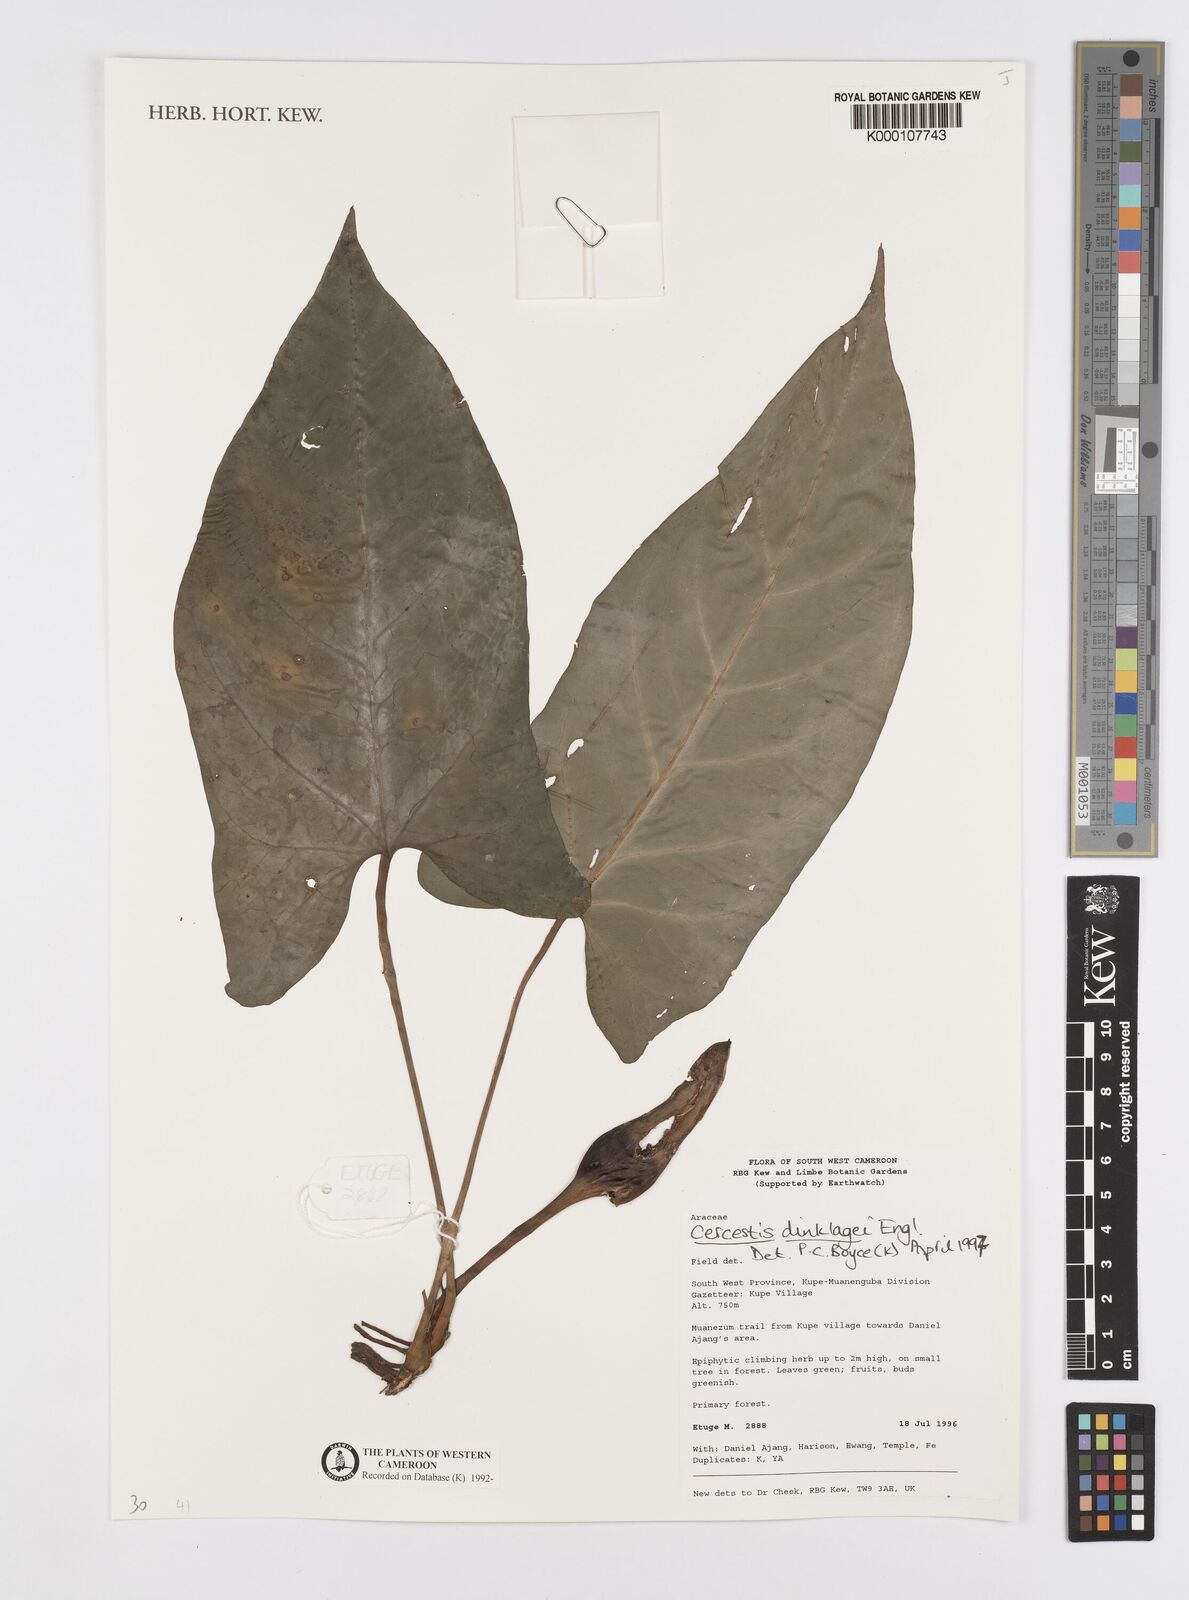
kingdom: Plantae
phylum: Tracheophyta
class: Liliopsida
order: Alismatales
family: Araceae
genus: Cercestis
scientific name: Cercestis dinklagei
